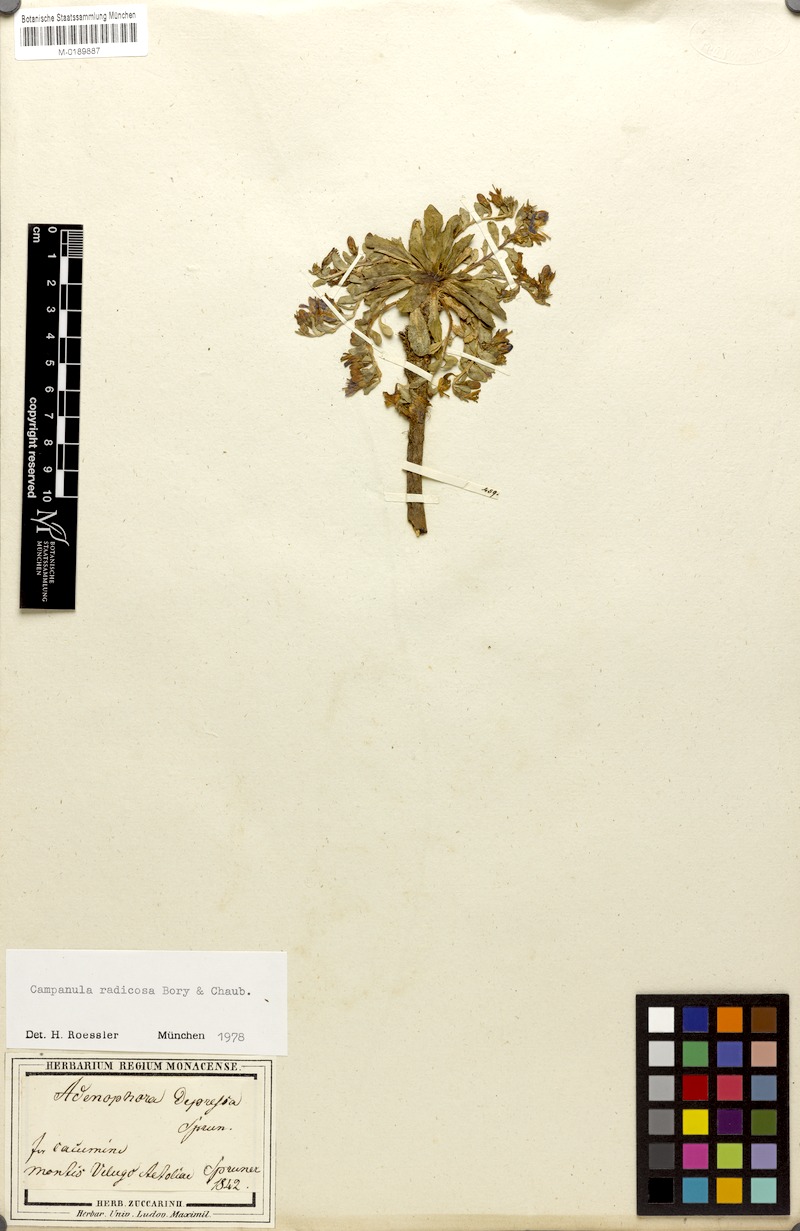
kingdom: Plantae
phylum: Tracheophyta
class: Magnoliopsida
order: Asterales
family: Campanulaceae
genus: Campanula
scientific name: Campanula radicosa
